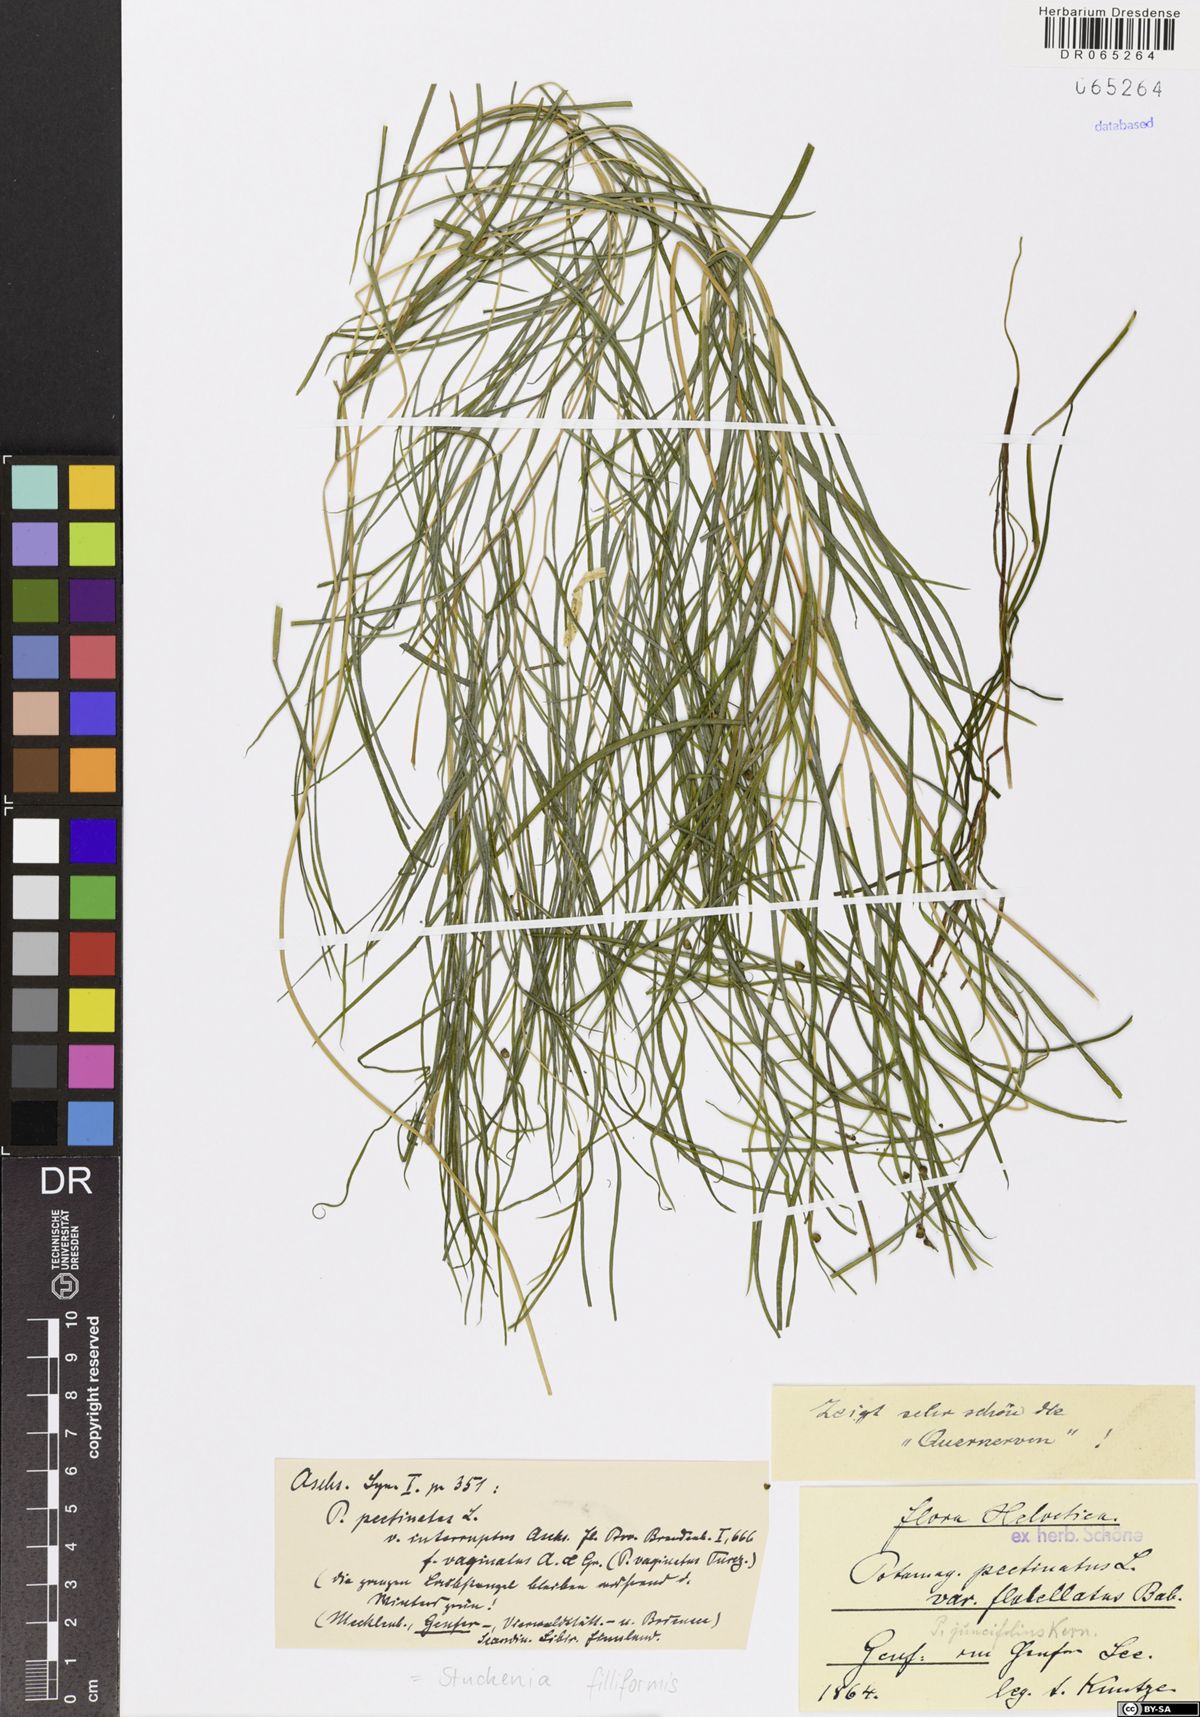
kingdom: Plantae
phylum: Tracheophyta
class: Liliopsida
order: Alismatales
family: Potamogetonaceae
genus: Stuckenia
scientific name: Stuckenia filiformis
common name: Alpine thread-leaved pondweed
